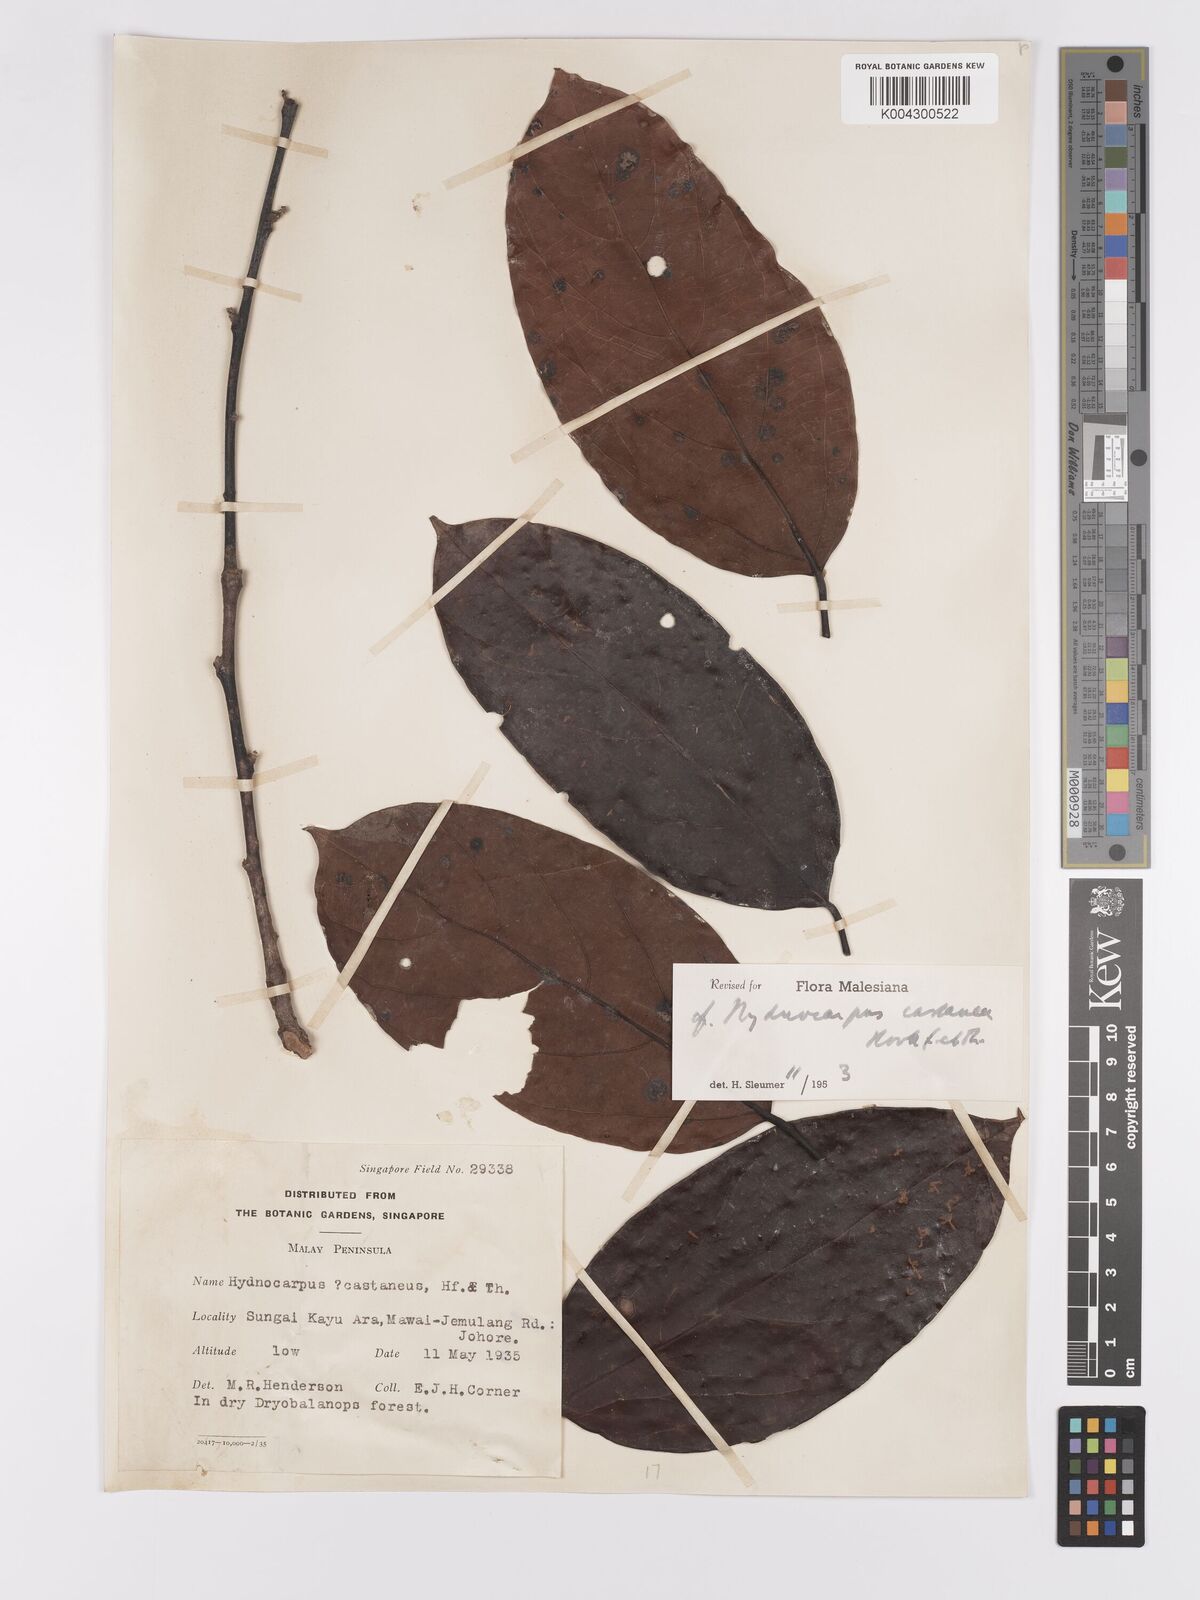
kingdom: Plantae
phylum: Tracheophyta
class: Magnoliopsida
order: Malpighiales
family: Achariaceae
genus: Hydnocarpus
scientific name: Hydnocarpus castaneus
